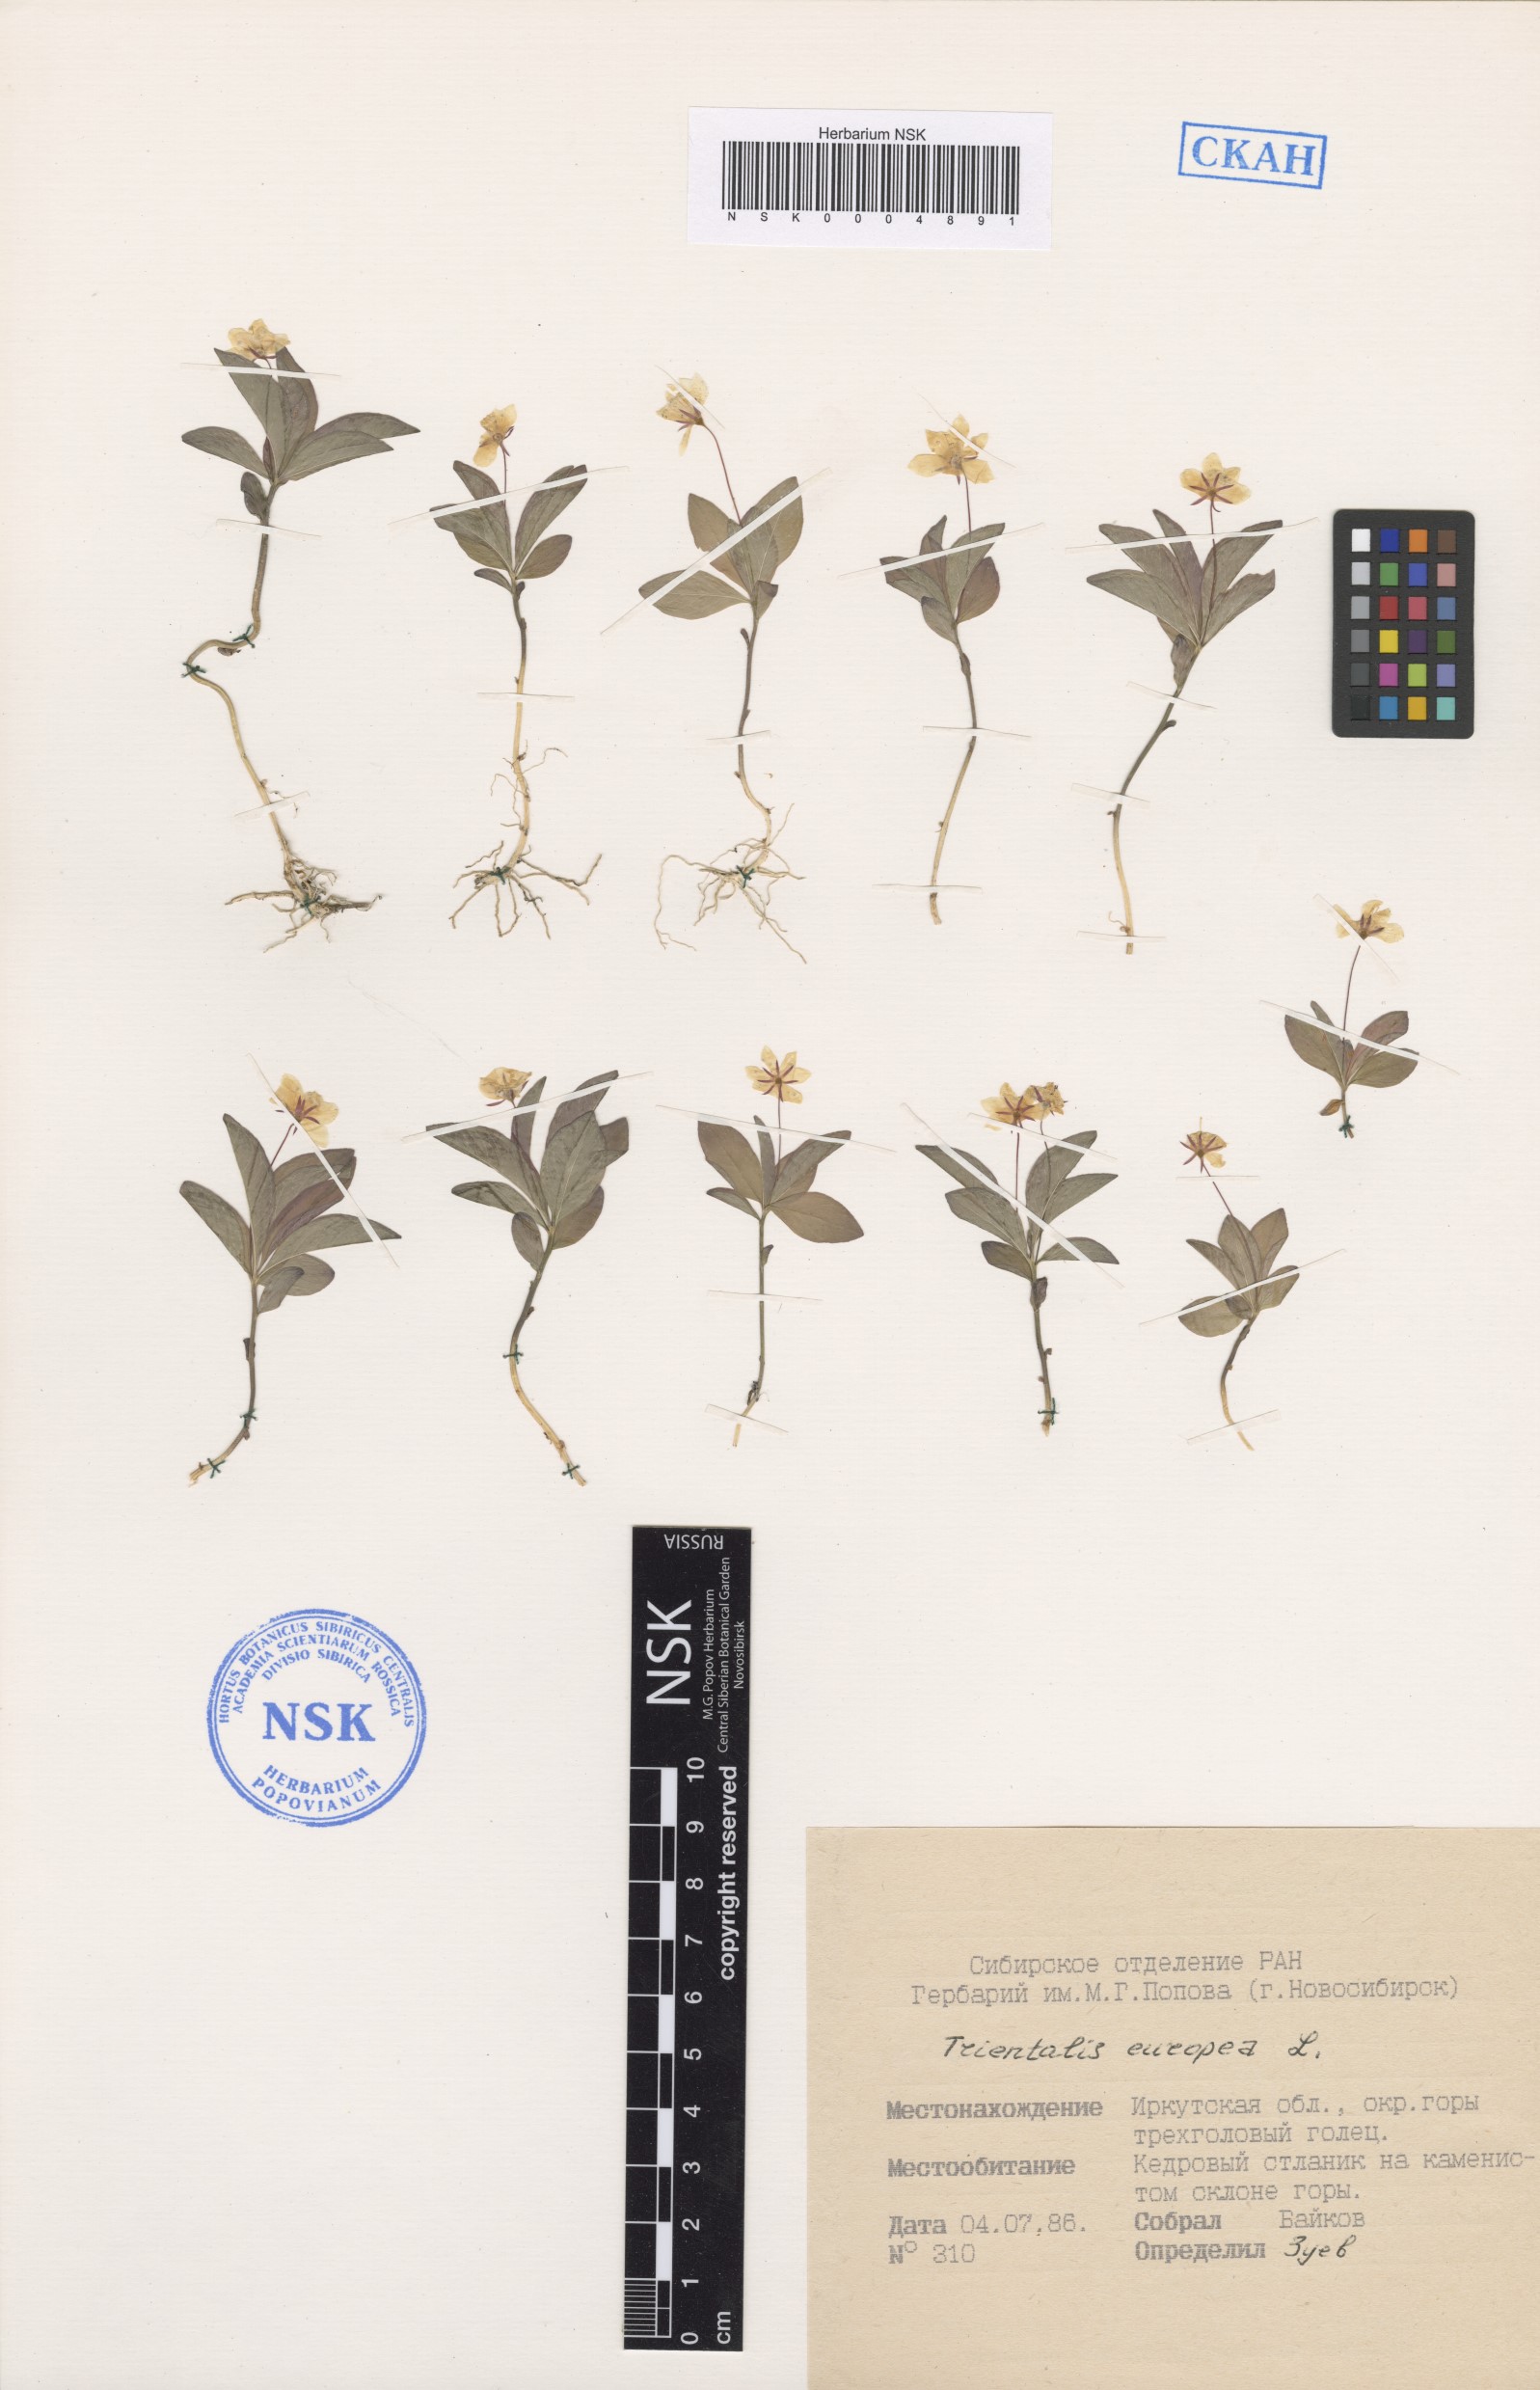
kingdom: Plantae
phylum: Tracheophyta
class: Magnoliopsida
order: Ericales
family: Primulaceae
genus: Lysimachia
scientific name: Lysimachia europaea
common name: Arctic starflower
